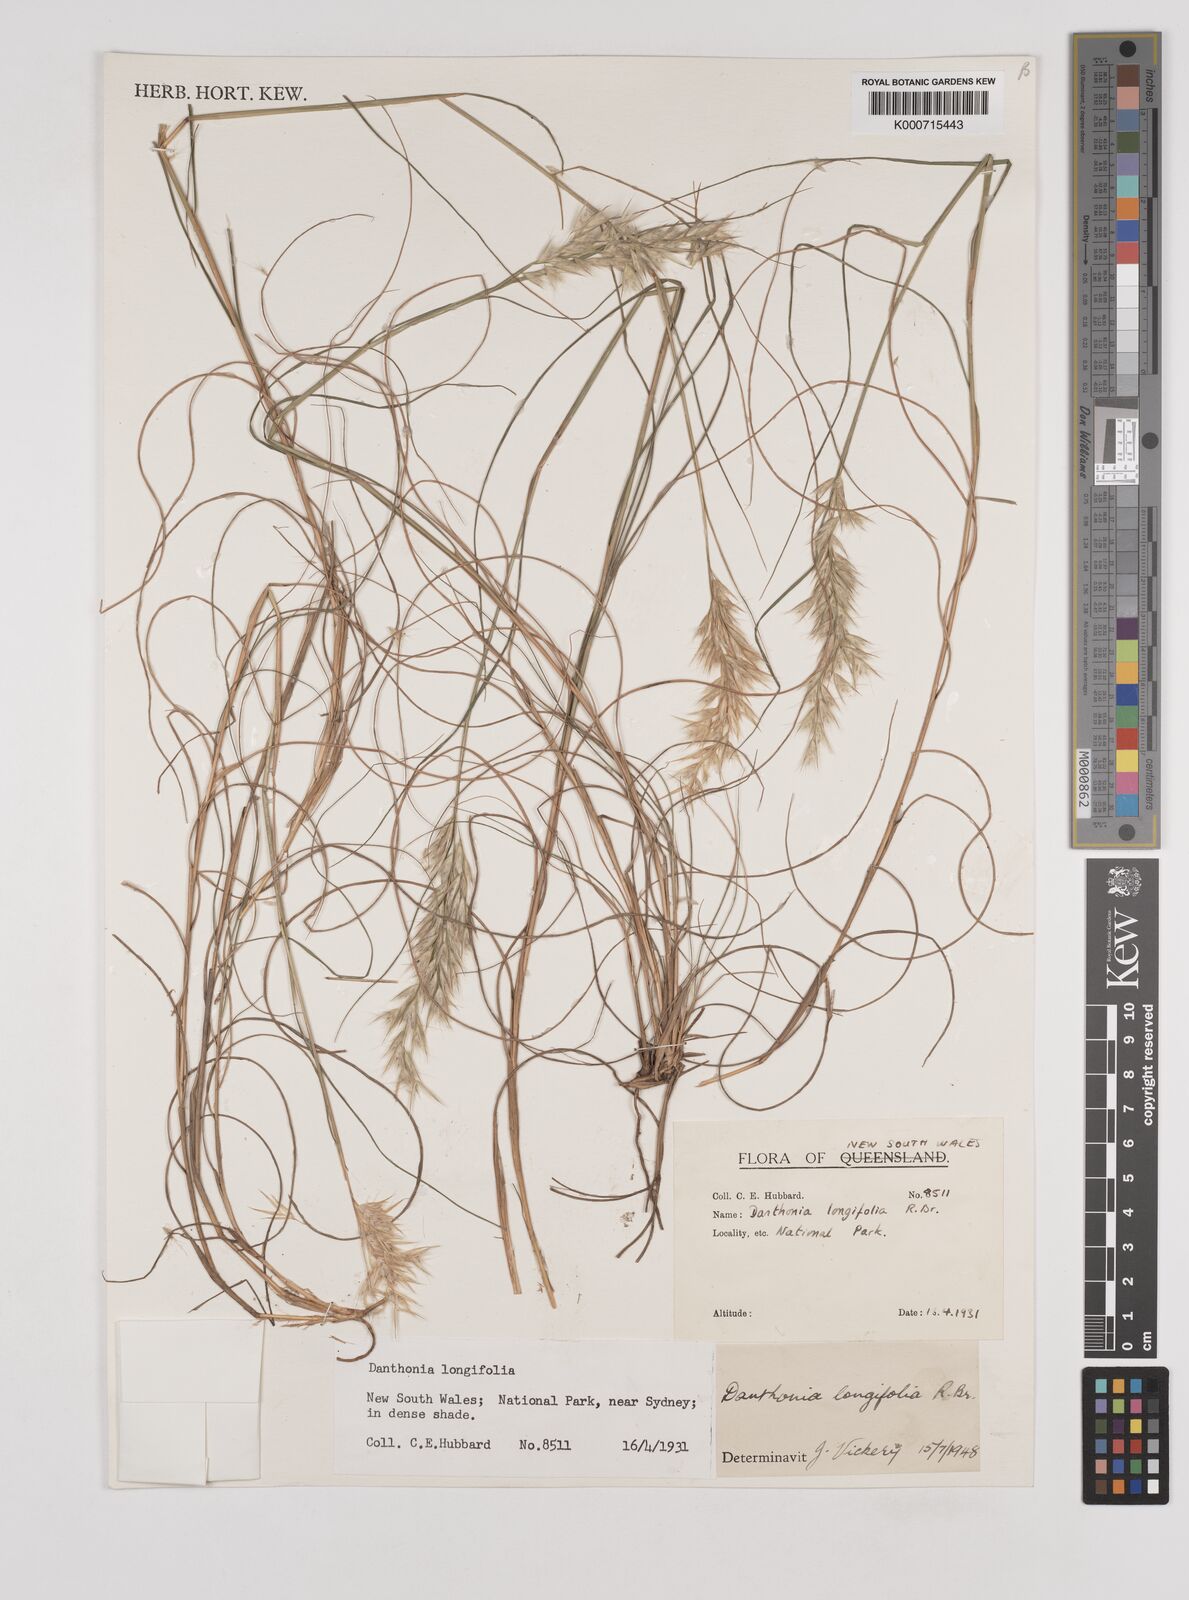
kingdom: Plantae
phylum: Tracheophyta
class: Liliopsida
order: Poales
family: Poaceae
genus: Rytidosperma
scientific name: Rytidosperma longifolium
